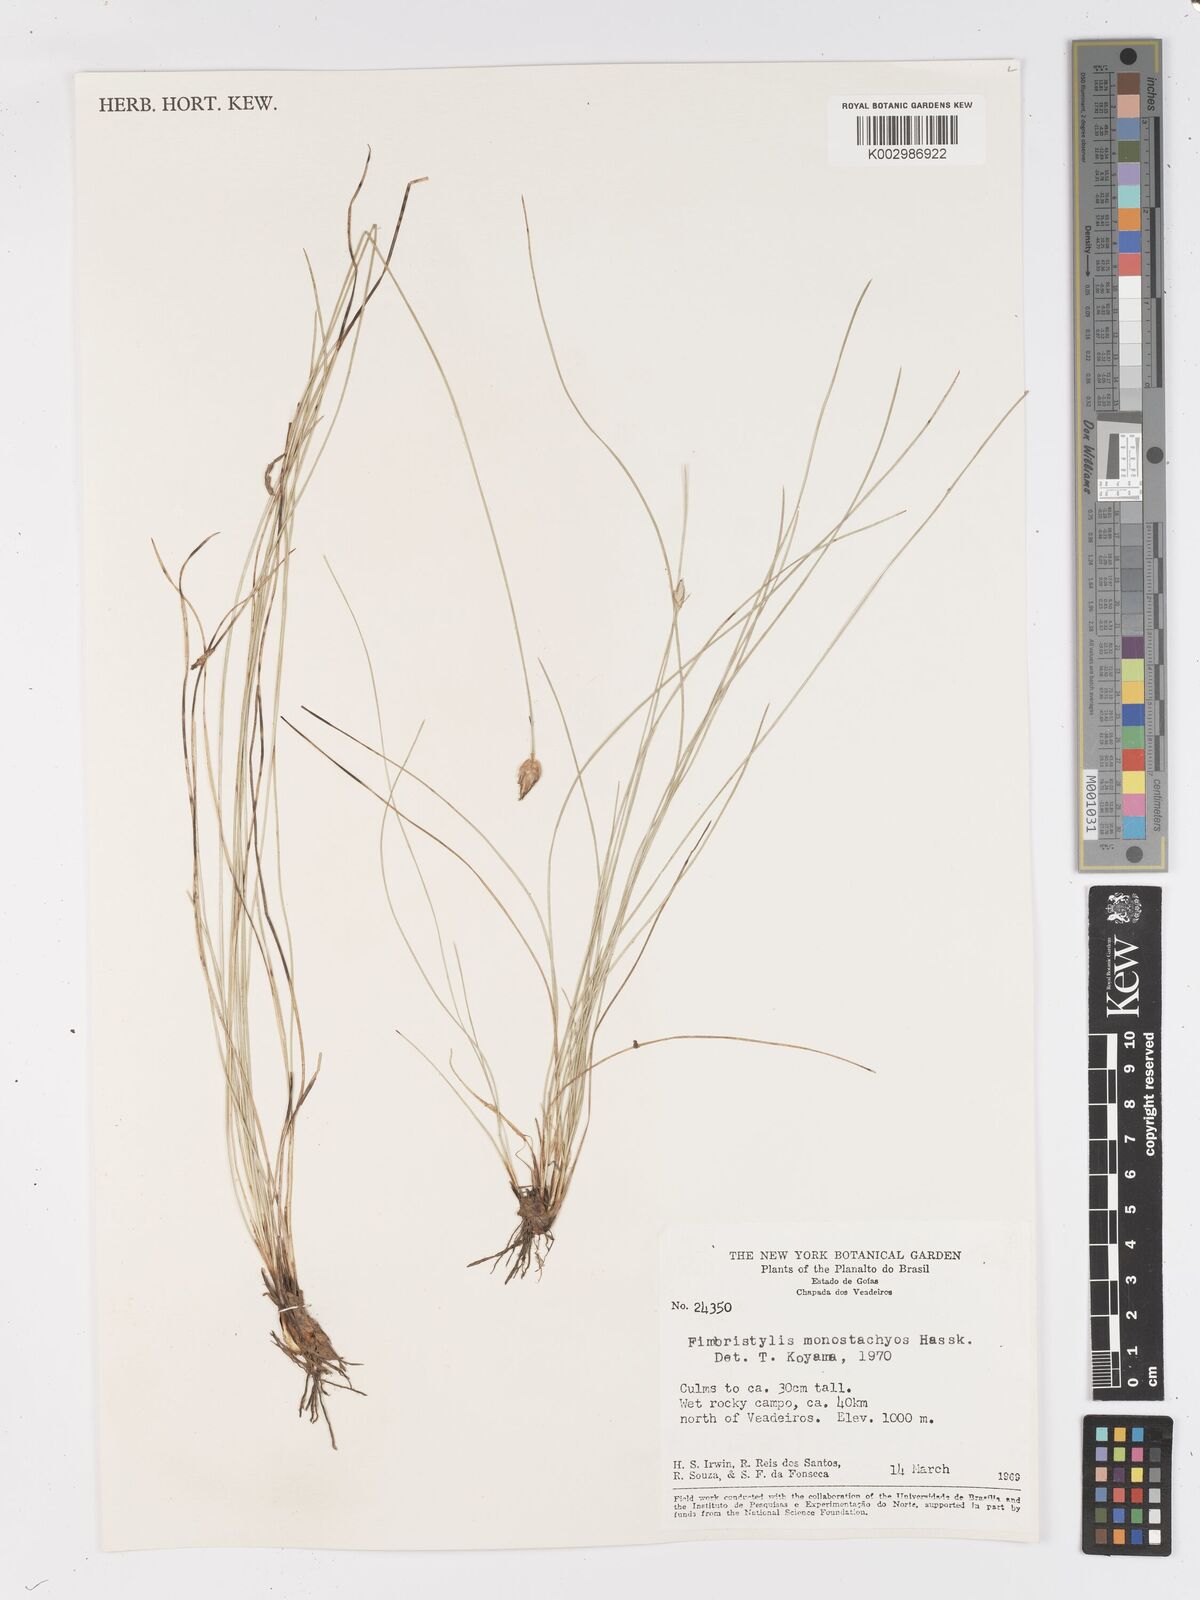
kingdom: Plantae
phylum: Tracheophyta
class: Liliopsida
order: Poales
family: Cyperaceae
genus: Abildgaardia
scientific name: Abildgaardia ovata
